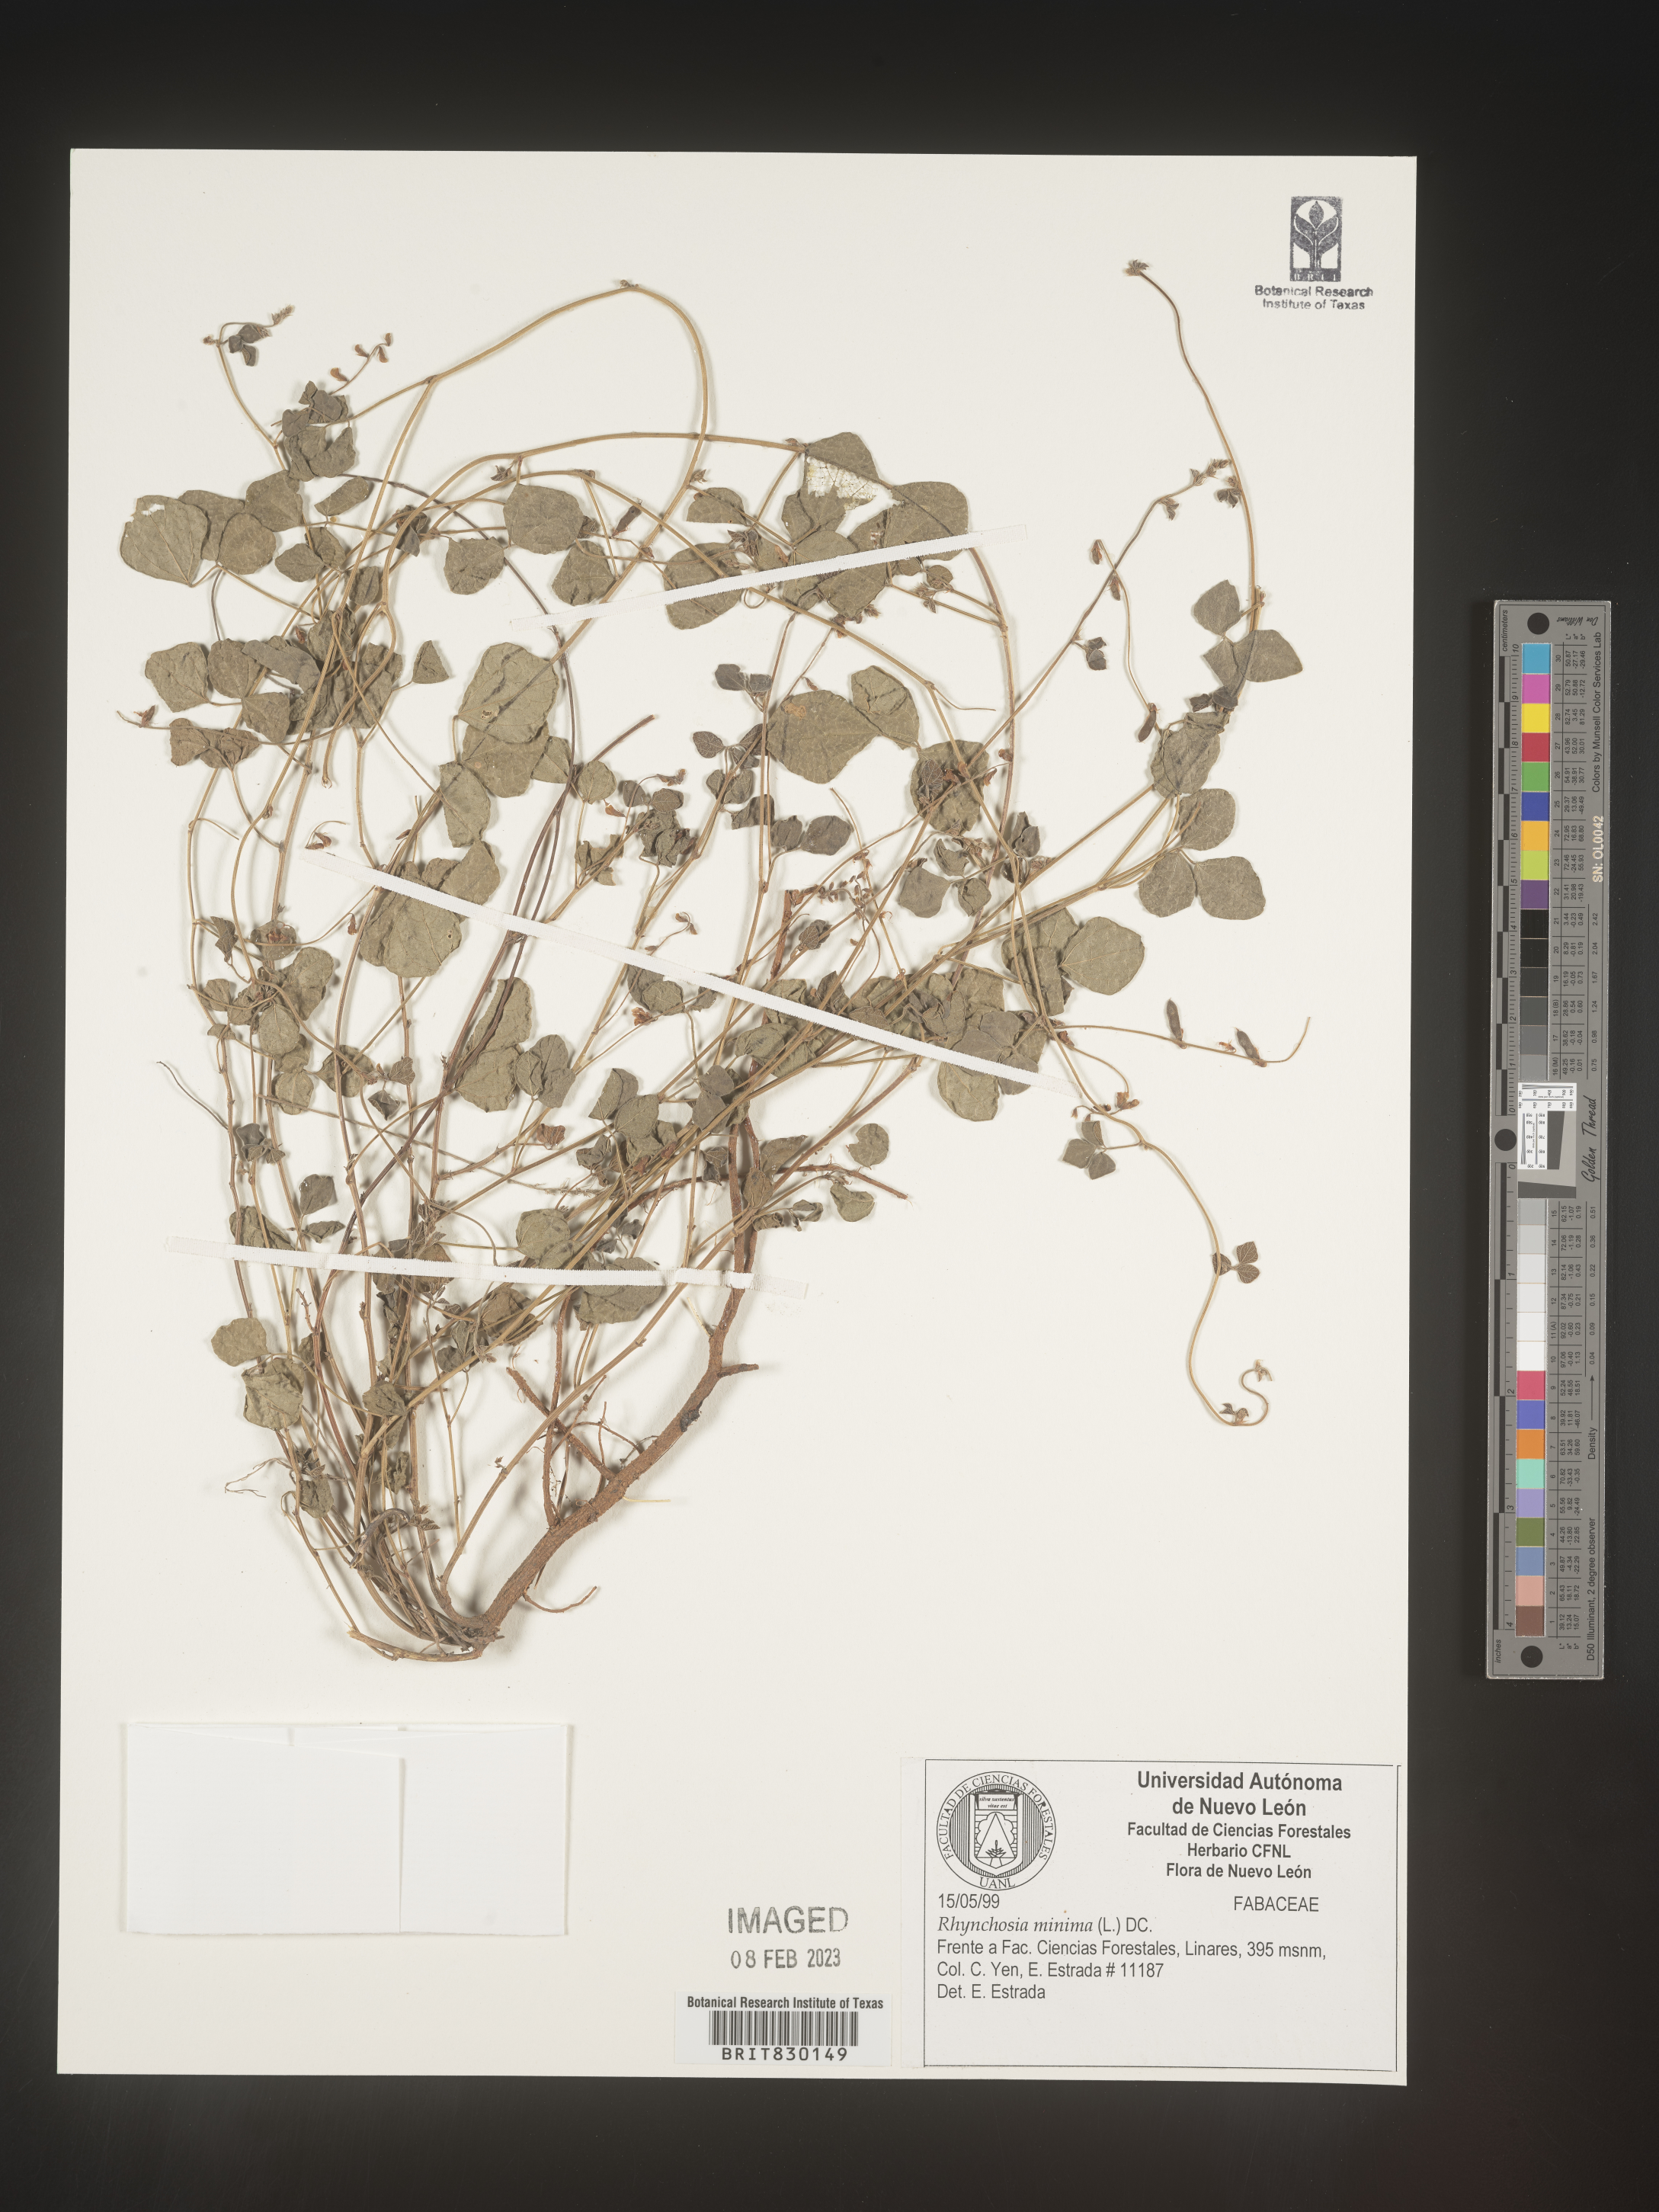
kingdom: Plantae
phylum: Tracheophyta
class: Magnoliopsida
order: Fabales
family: Fabaceae
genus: Rhynchosia
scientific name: Rhynchosia
